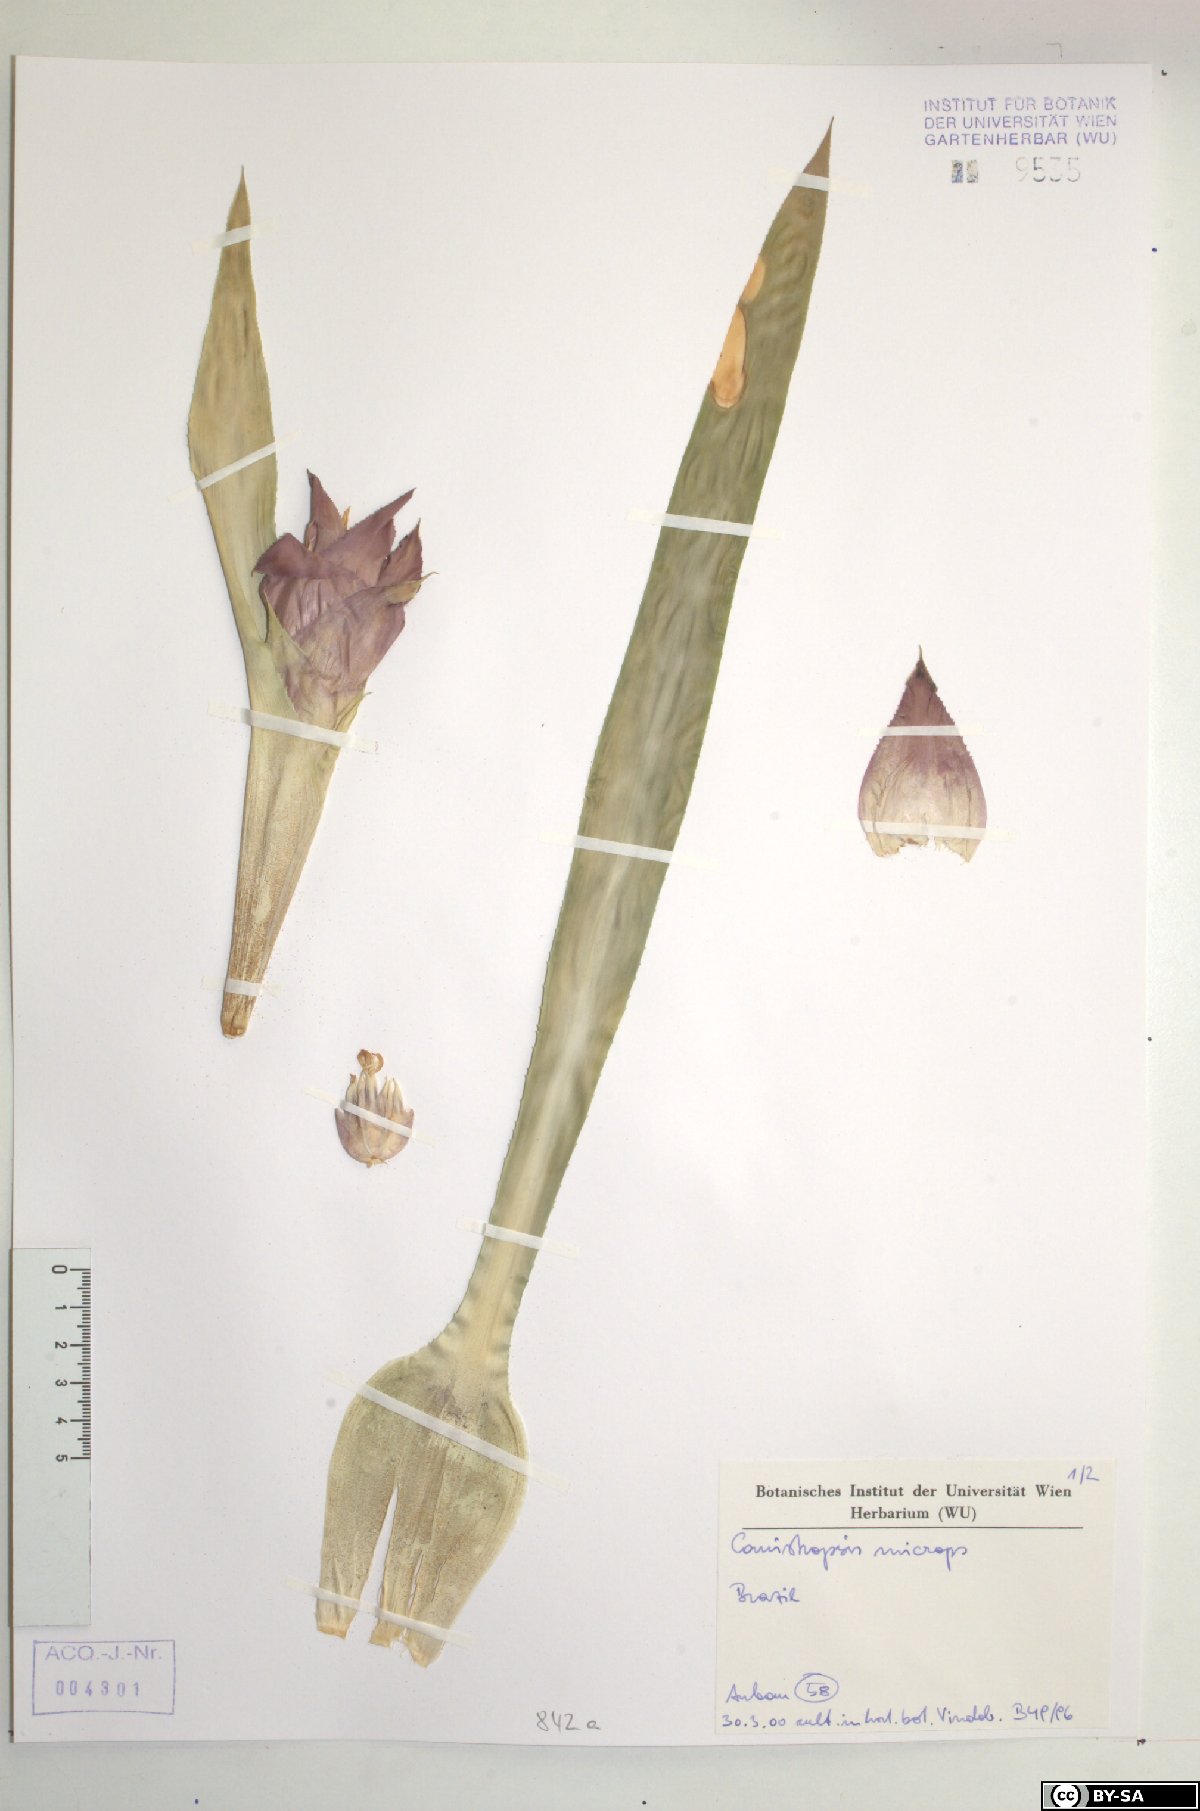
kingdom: Plantae
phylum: Tracheophyta
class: Liliopsida
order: Poales
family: Bromeliaceae
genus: Canistropsis
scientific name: Canistropsis microps
